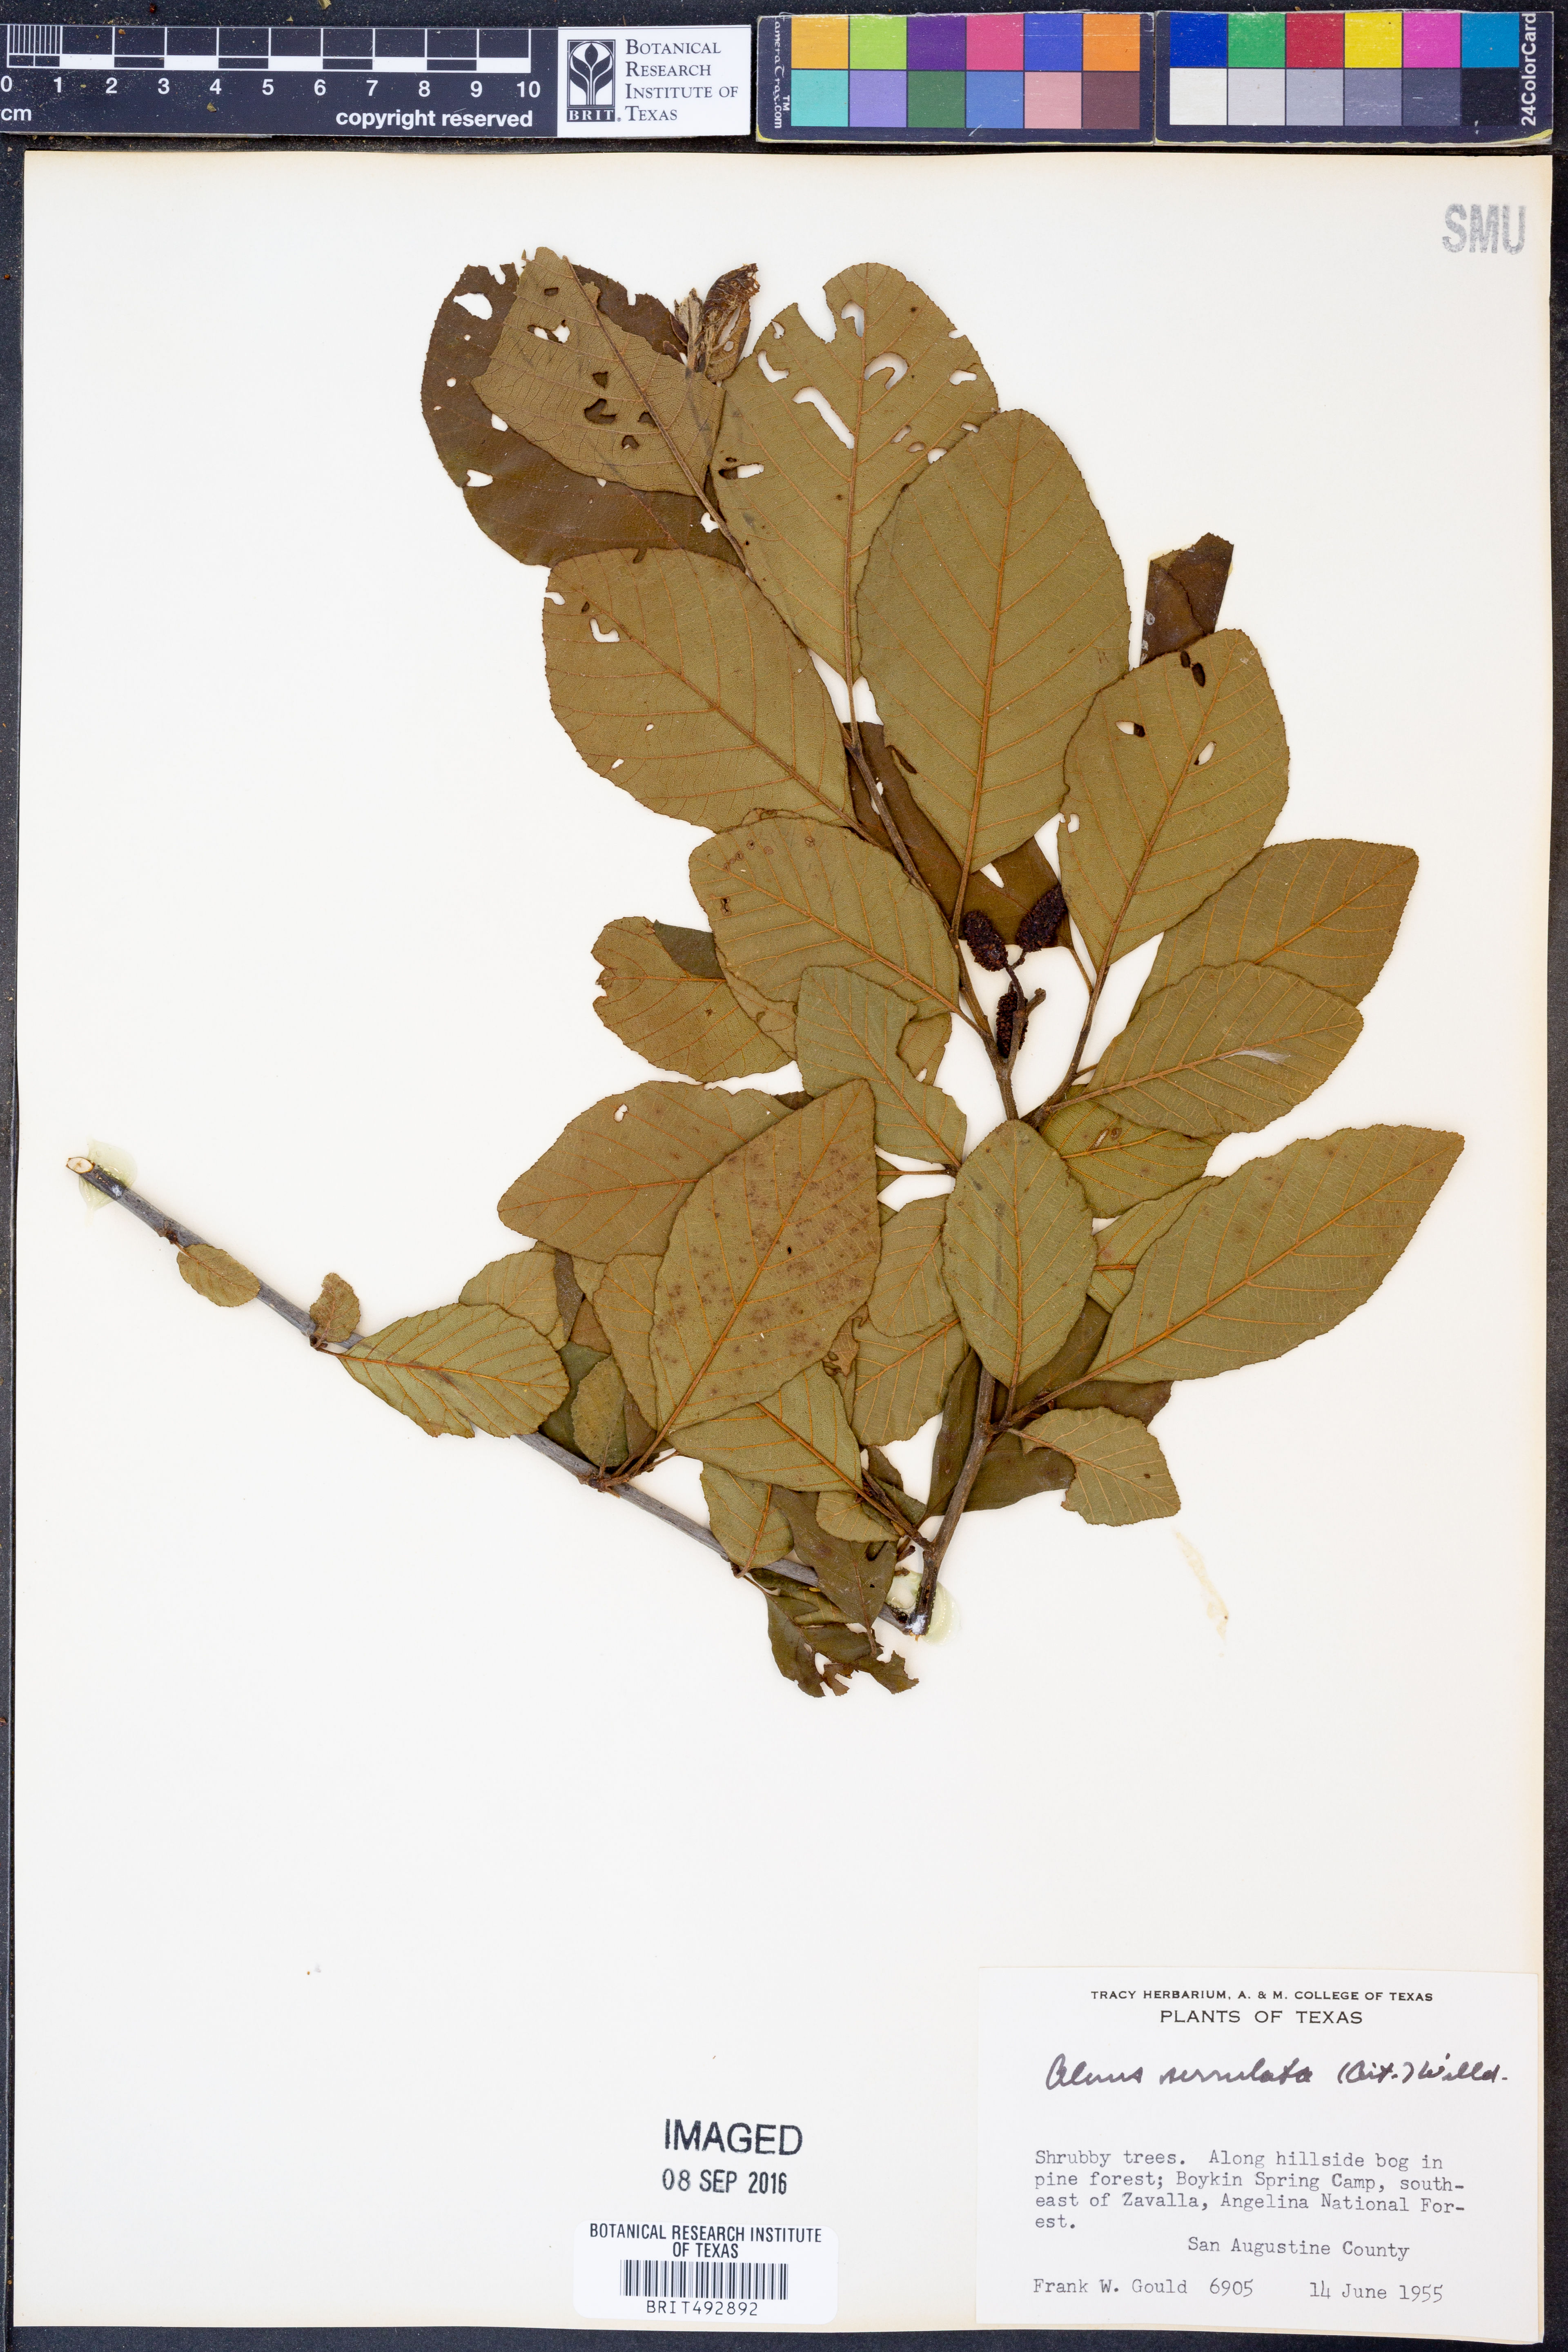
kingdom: Plantae
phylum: Tracheophyta
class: Magnoliopsida
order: Fagales
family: Betulaceae
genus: Alnus
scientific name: Alnus serrulata
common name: Hazel alder
